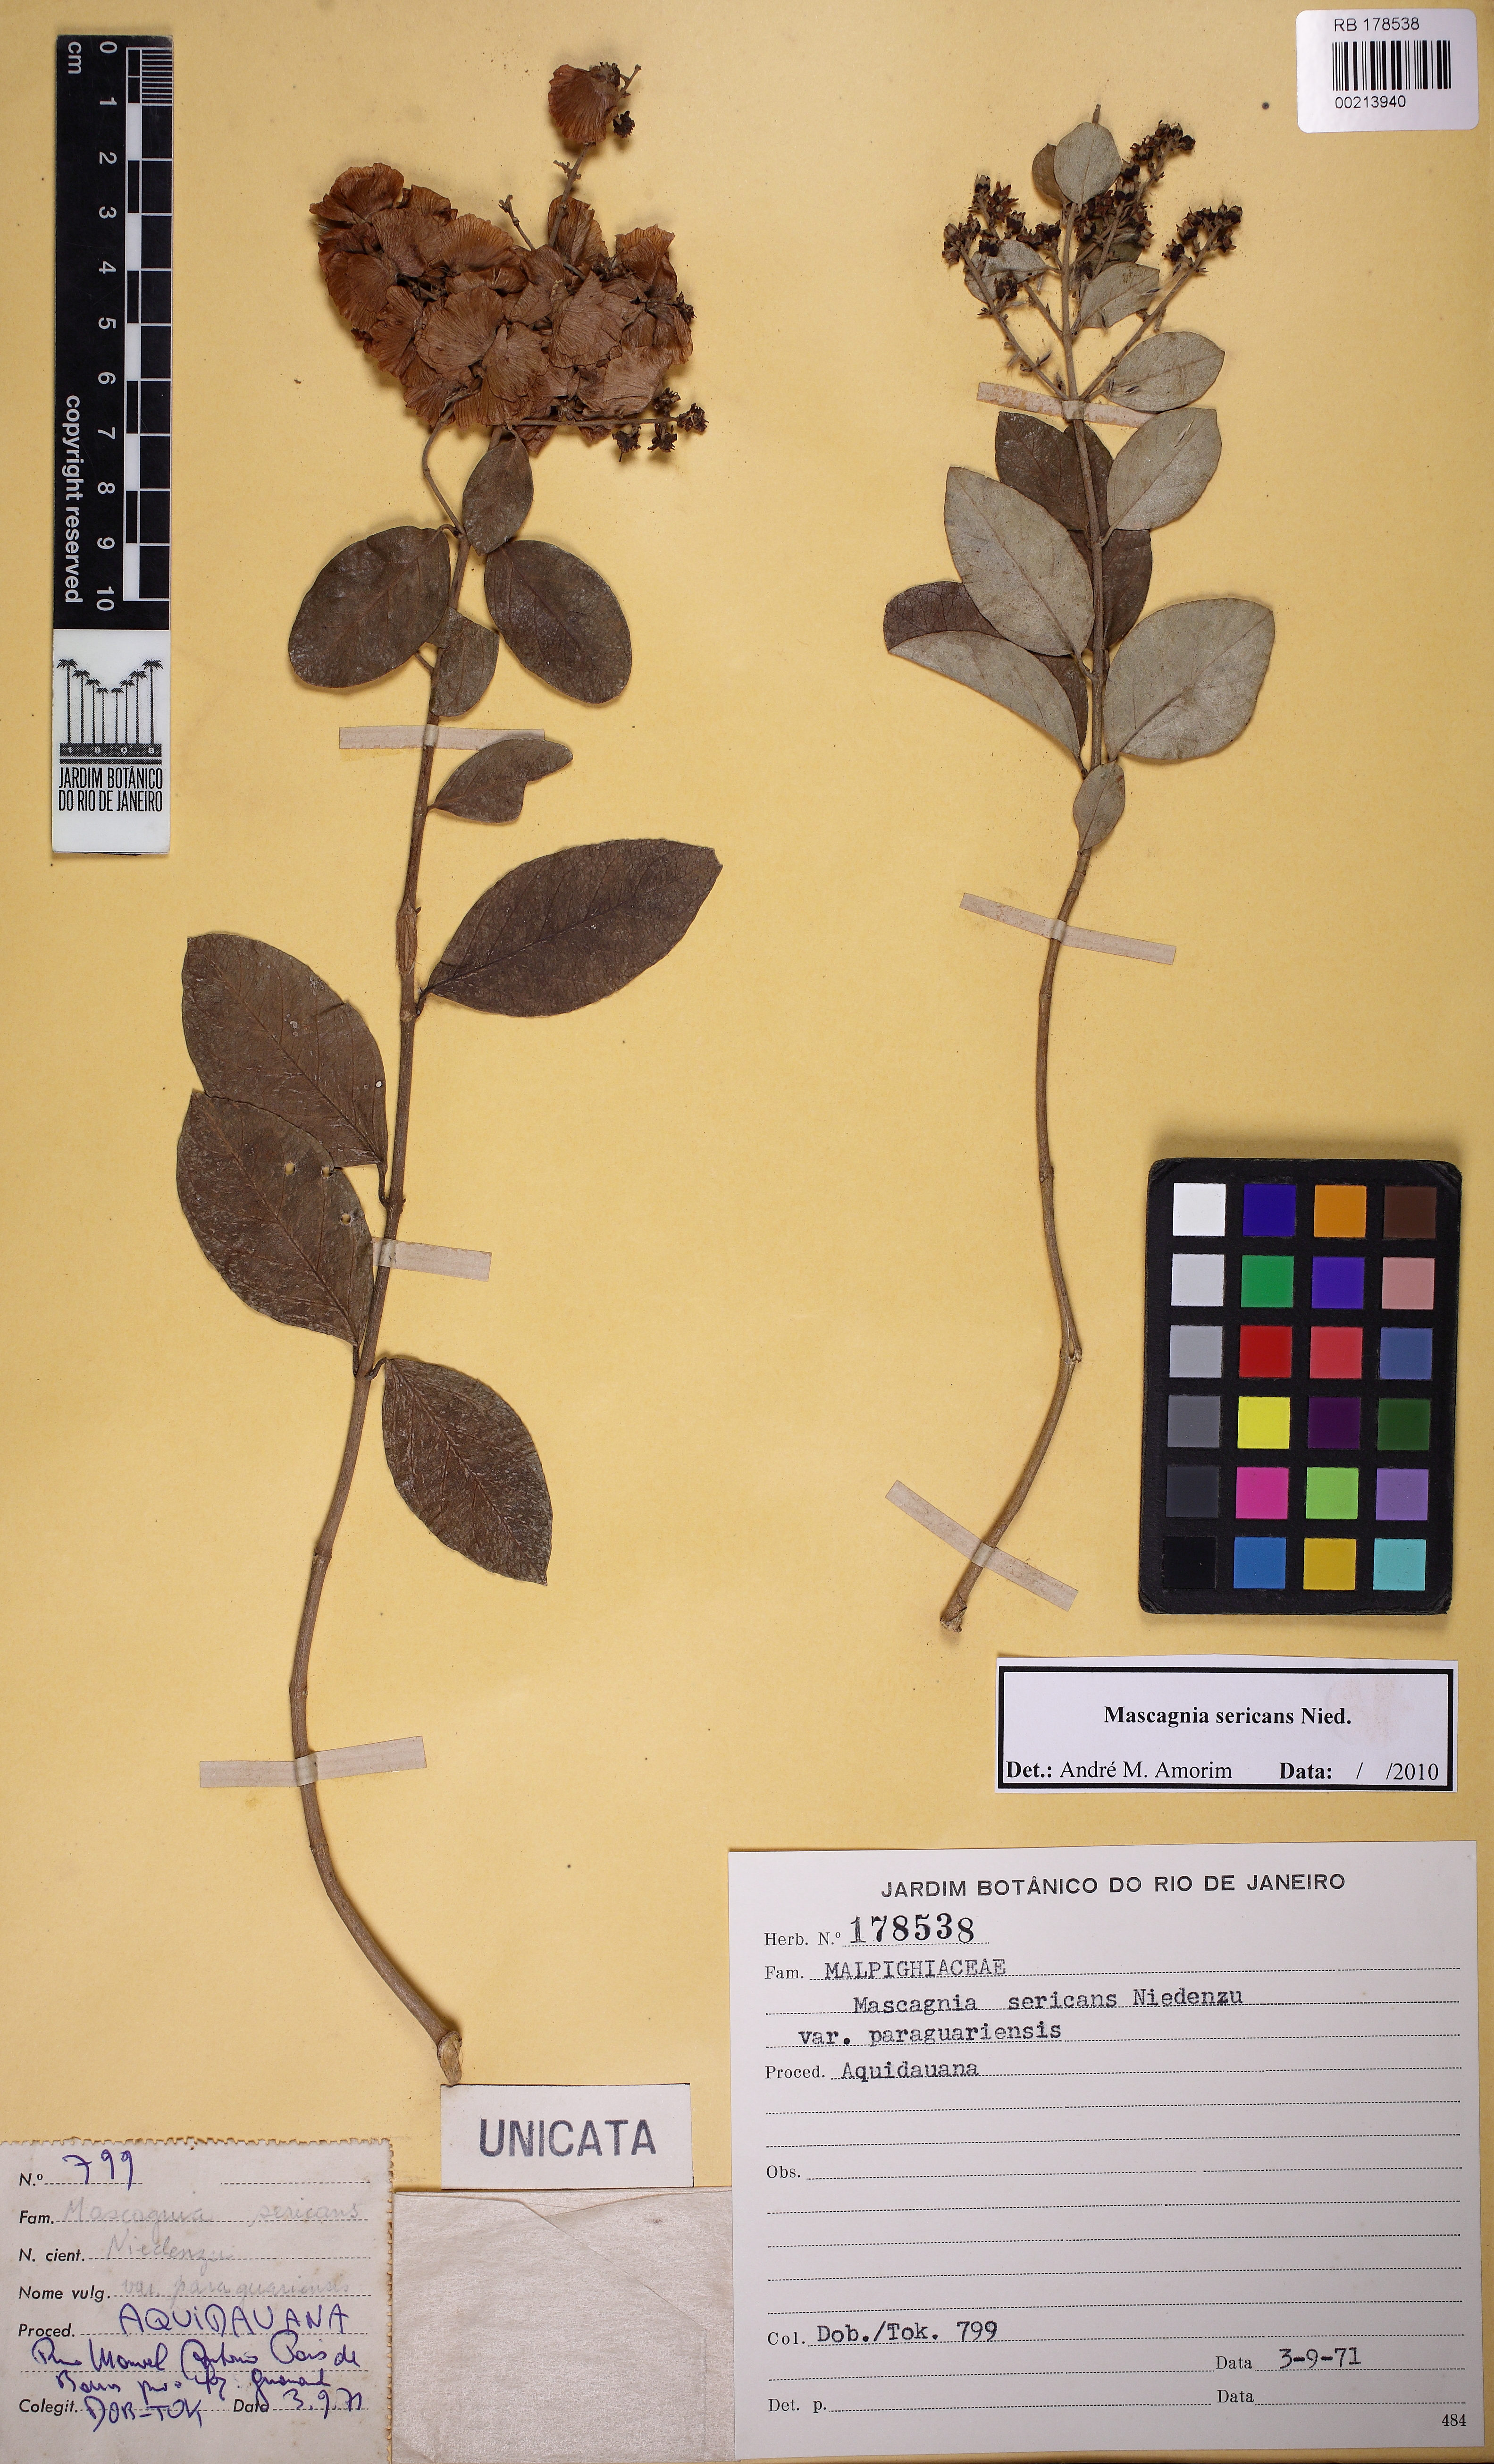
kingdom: Plantae
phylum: Tracheophyta
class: Magnoliopsida
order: Malpighiales
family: Malpighiaceae
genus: Niedenzuella
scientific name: Niedenzuella stannea
